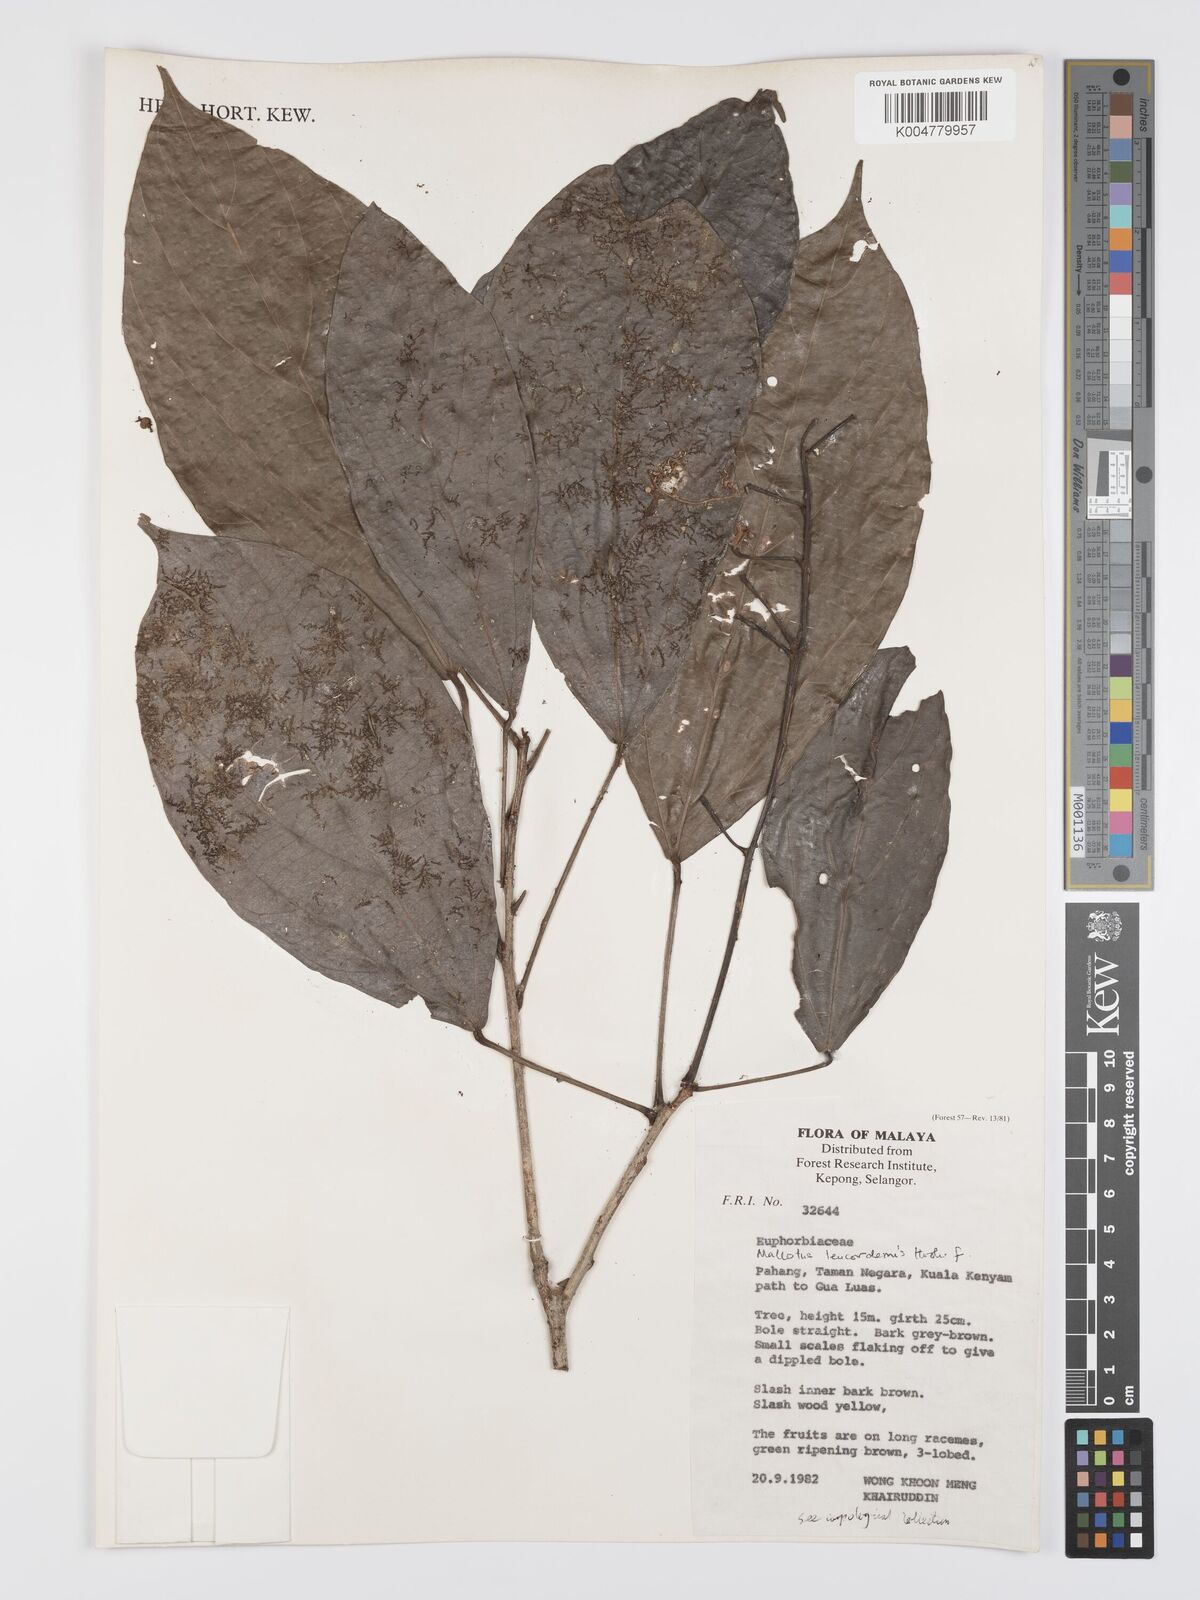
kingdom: Plantae
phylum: Tracheophyta
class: Magnoliopsida
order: Malpighiales
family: Euphorbiaceae
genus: Mallotus
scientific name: Mallotus leucodermis
